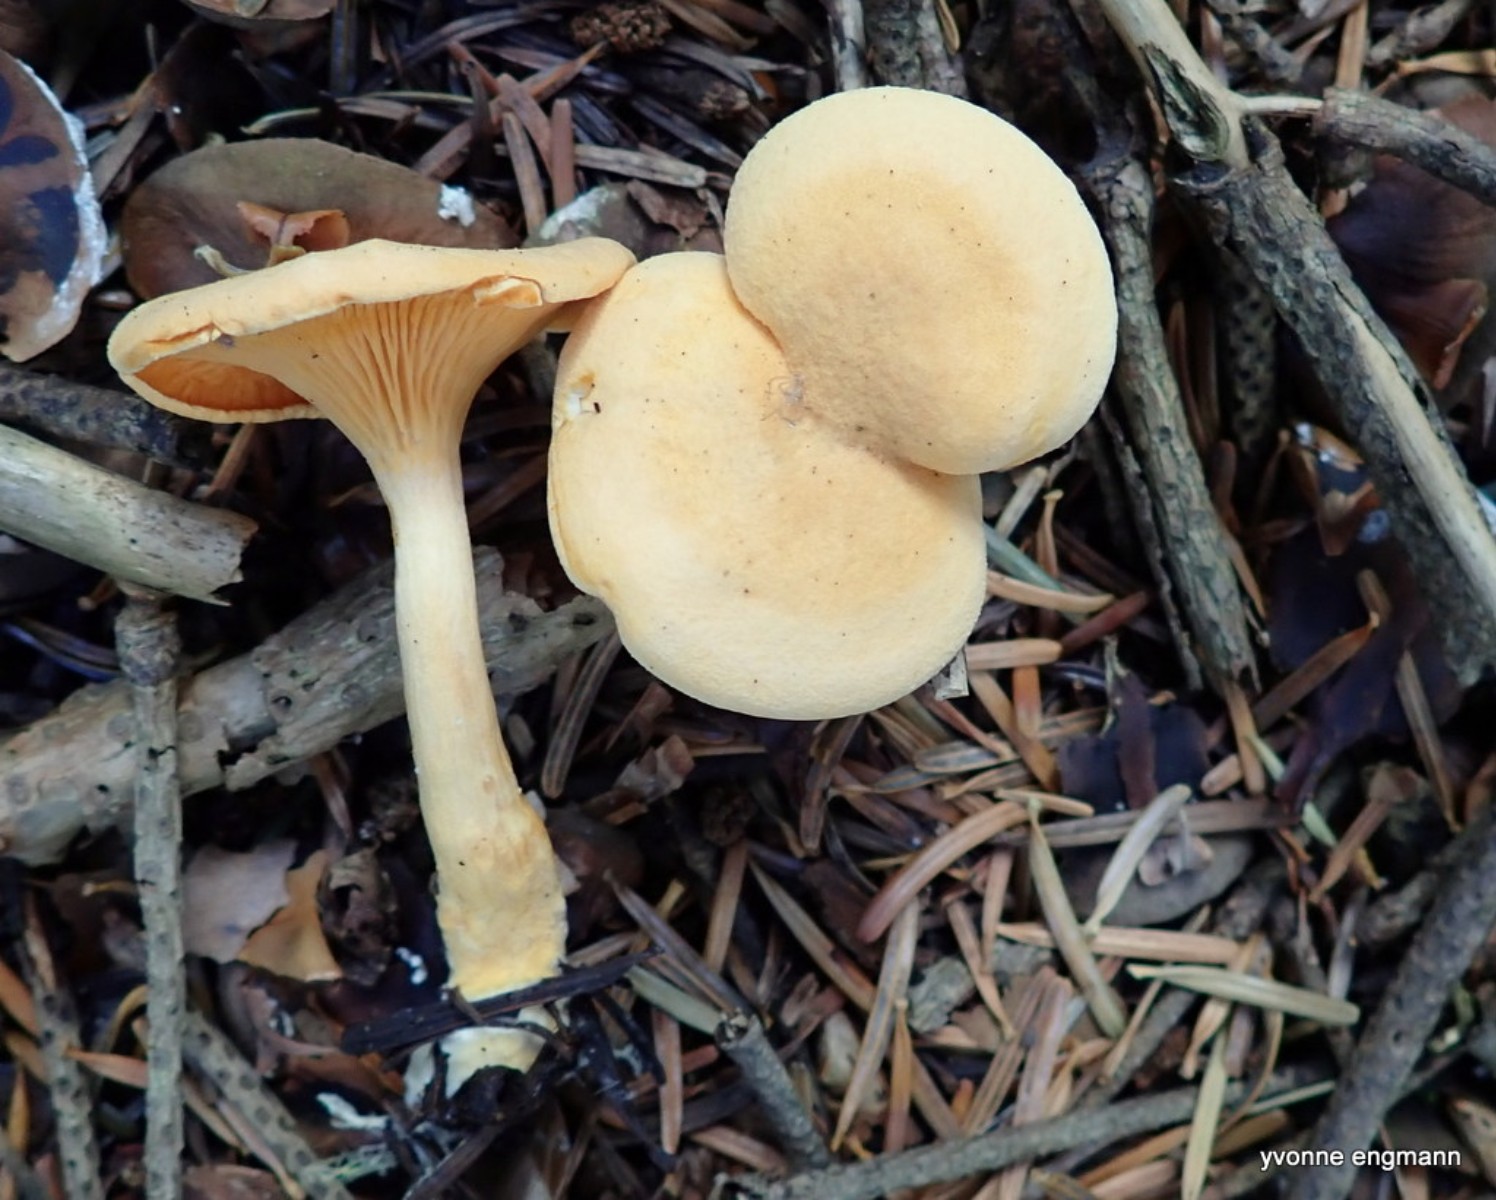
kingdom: Fungi
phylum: Basidiomycota
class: Agaricomycetes
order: Boletales
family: Hygrophoropsidaceae
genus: Hygrophoropsis
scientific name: Hygrophoropsis aurantiaca
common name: almindelig orangekantarel
